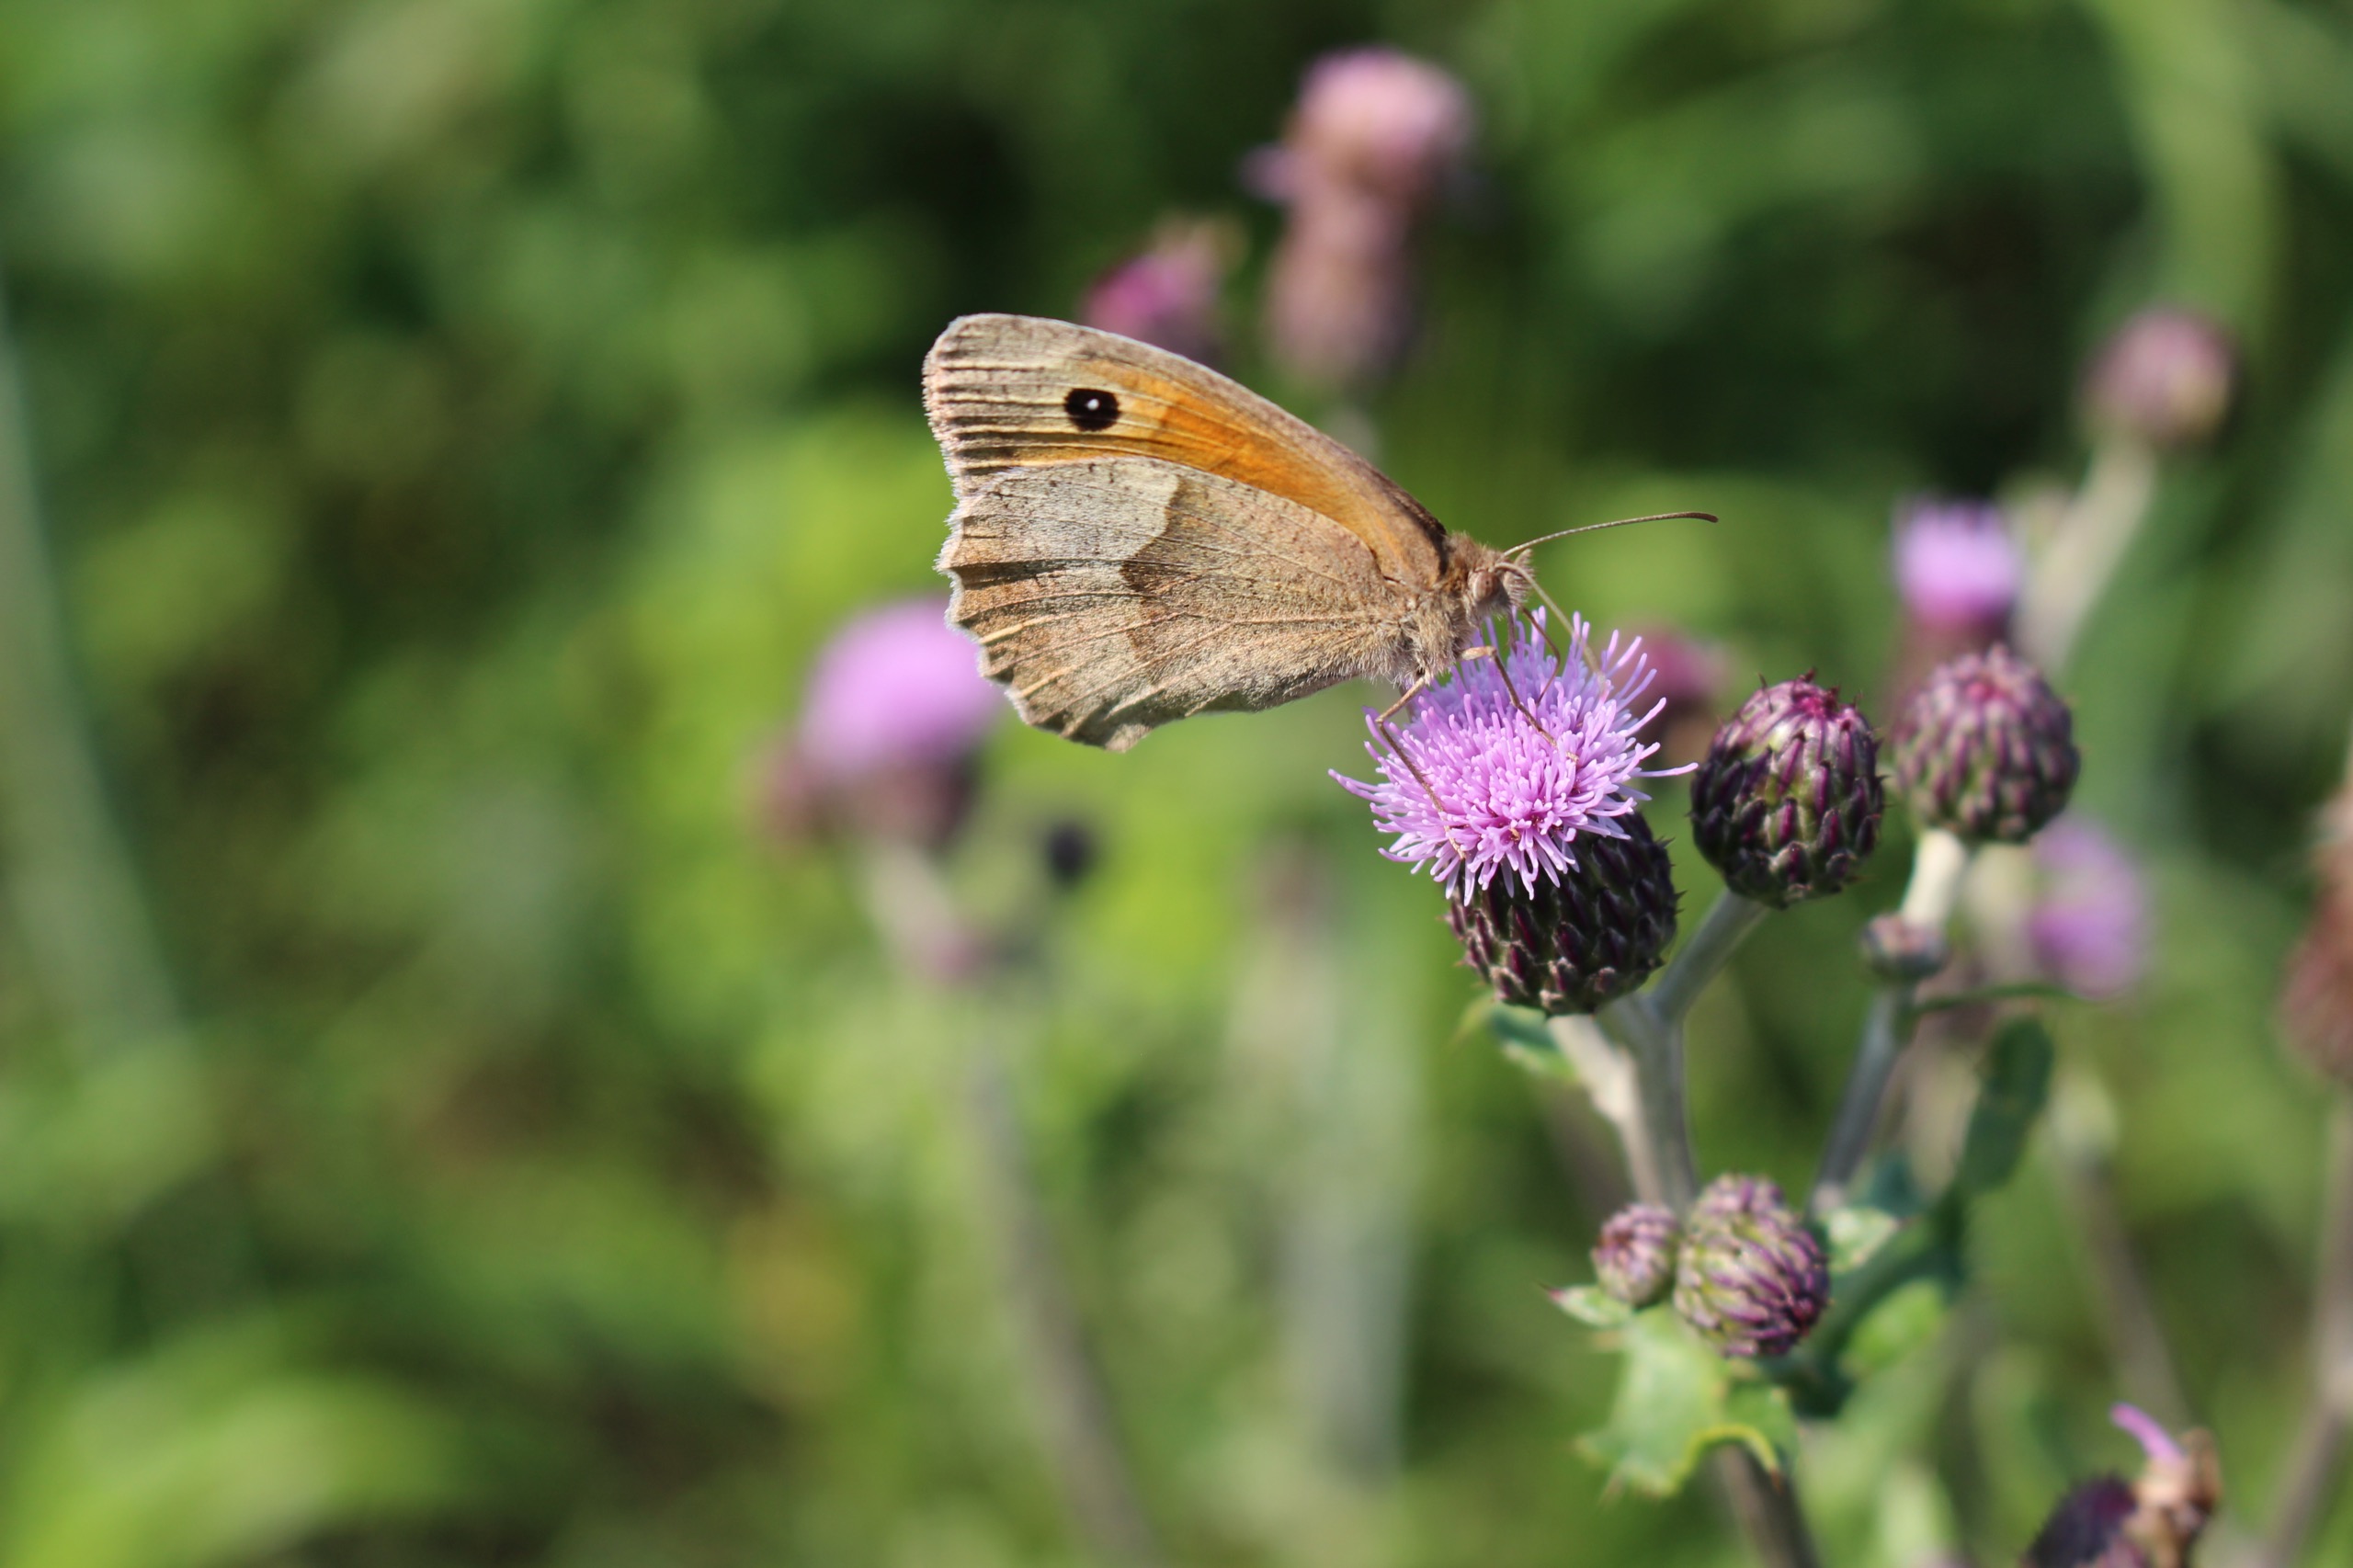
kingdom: Animalia
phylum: Arthropoda
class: Insecta
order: Lepidoptera
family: Nymphalidae
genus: Maniola
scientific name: Maniola jurtina
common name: Græsrandøje
